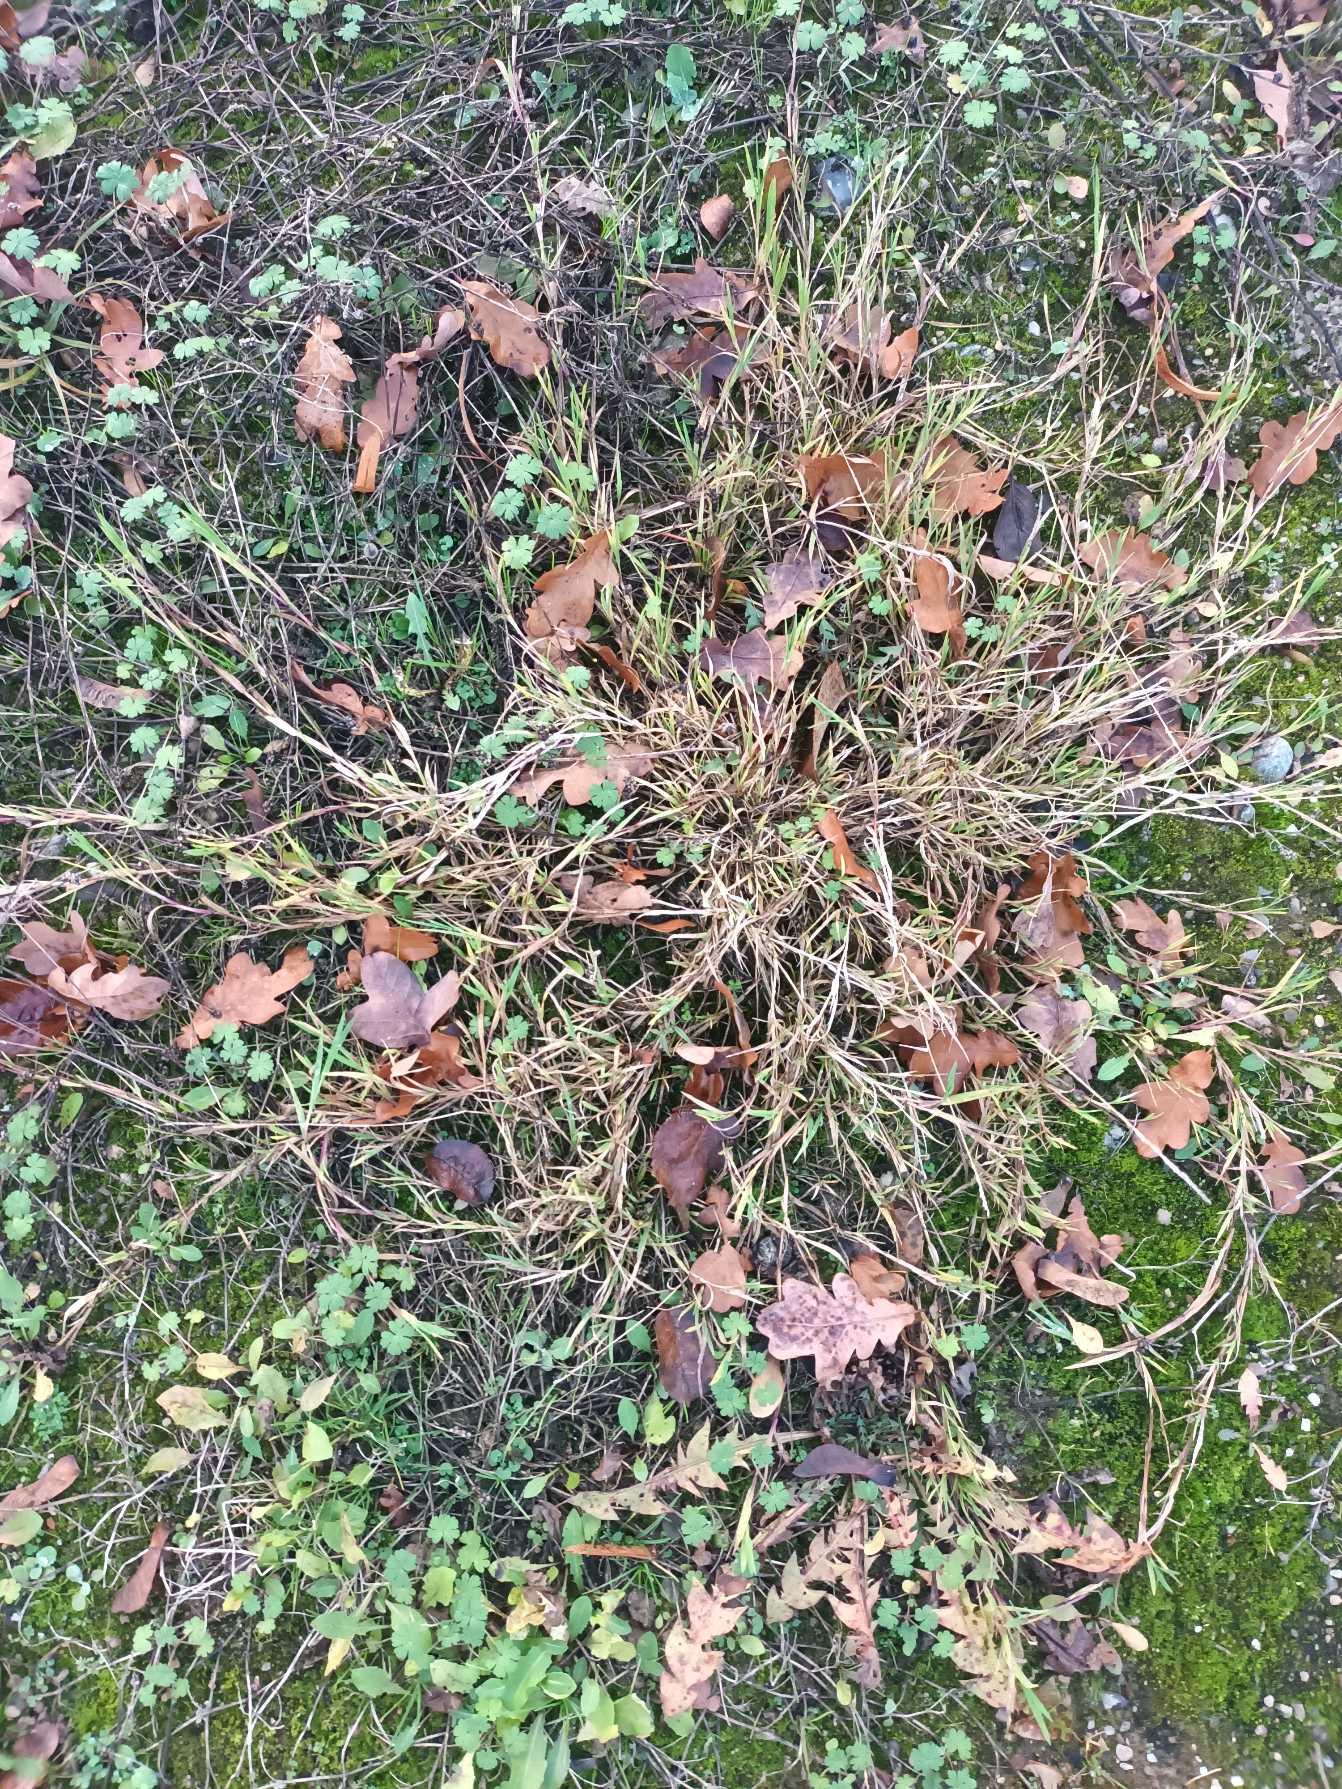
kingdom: Plantae
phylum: Tracheophyta
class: Liliopsida
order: Poales
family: Poaceae
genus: Agrostis
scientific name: Agrostis stolonifera
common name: Kryb-hvene
